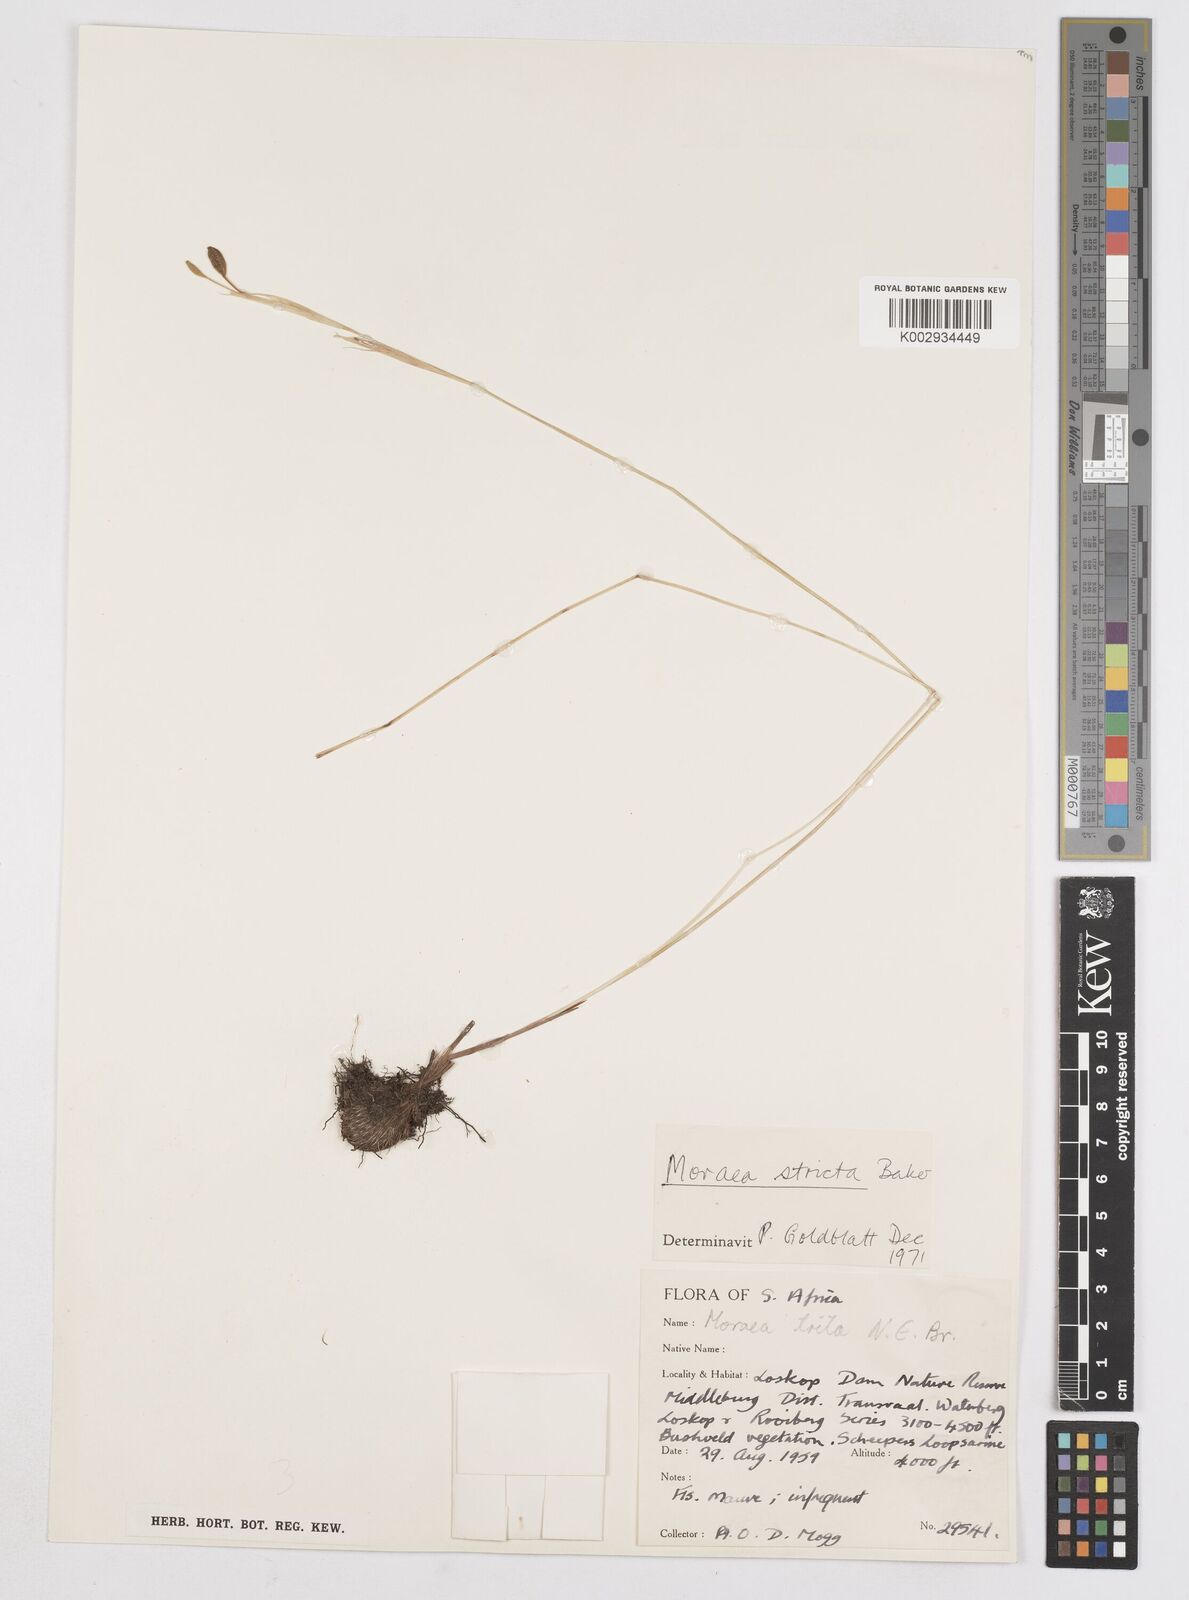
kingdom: Plantae
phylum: Tracheophyta
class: Liliopsida
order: Asparagales
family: Iridaceae
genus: Moraea
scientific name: Moraea stricta
